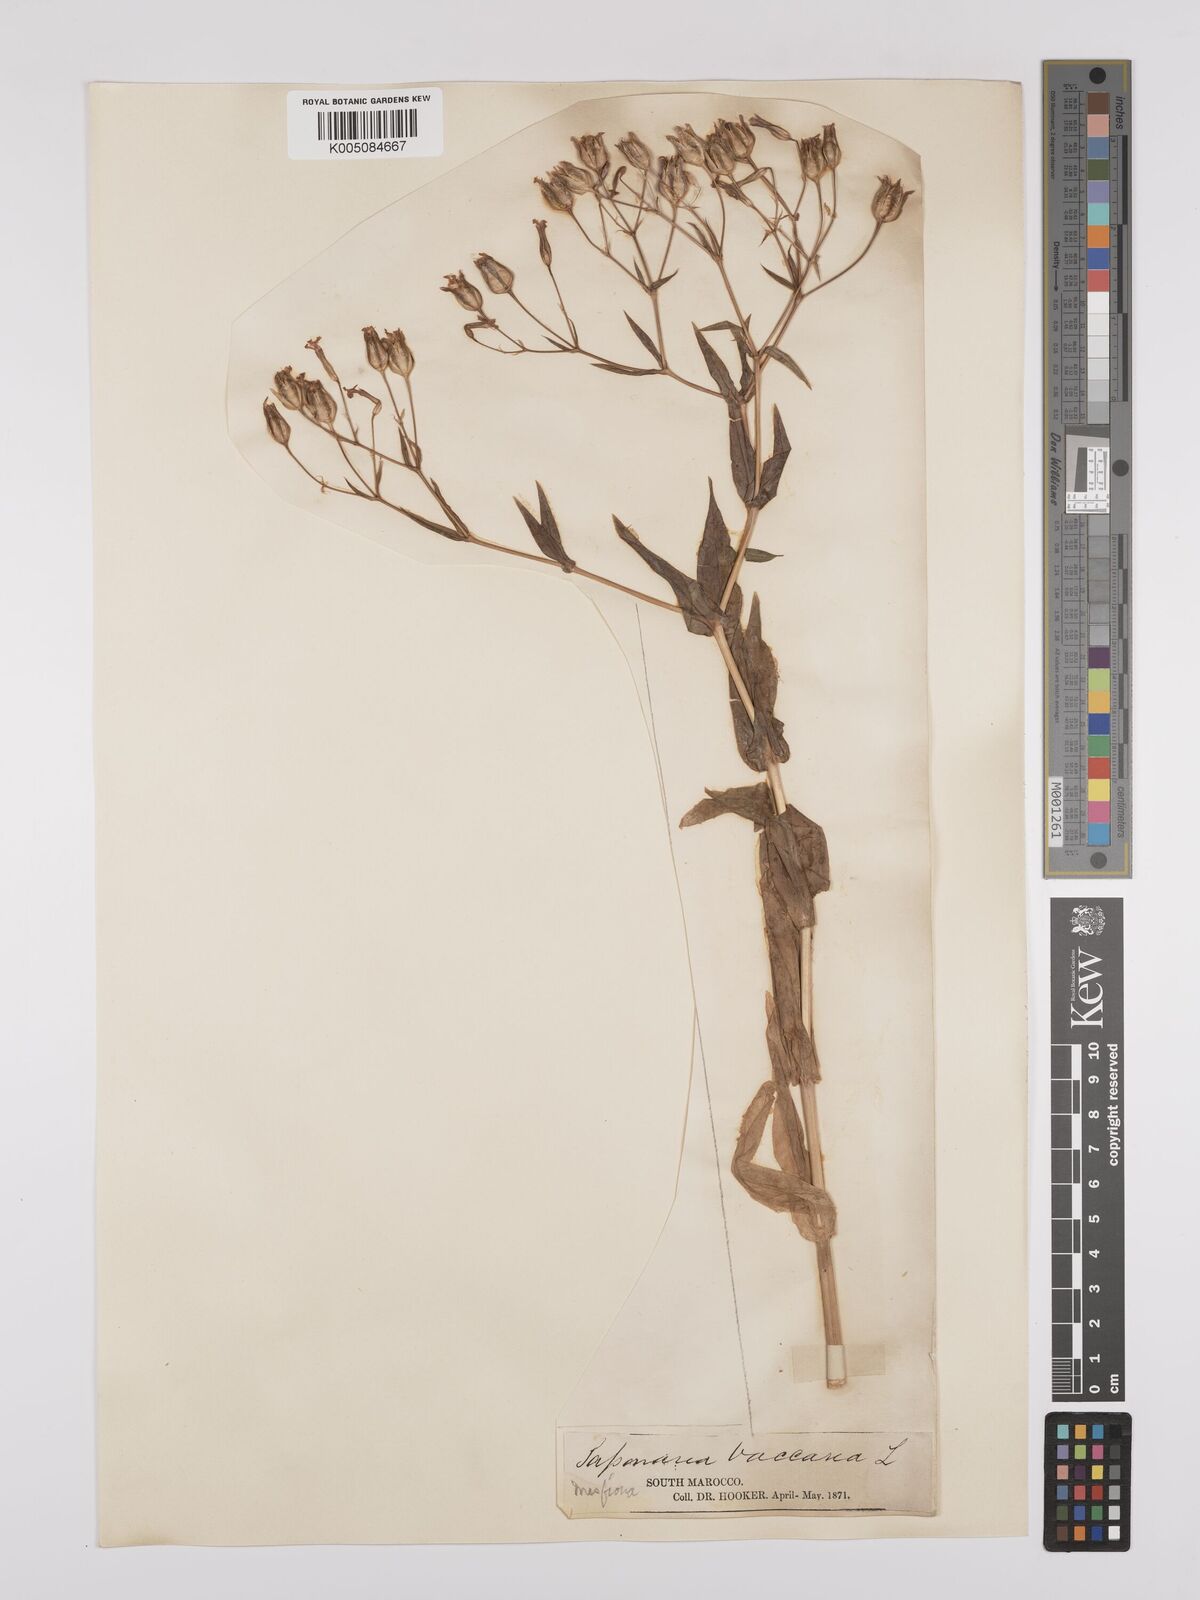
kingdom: Plantae
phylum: Tracheophyta
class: Magnoliopsida
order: Caryophyllales
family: Caryophyllaceae
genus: Gypsophila
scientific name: Gypsophila vaccaria
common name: Cow soapwort
